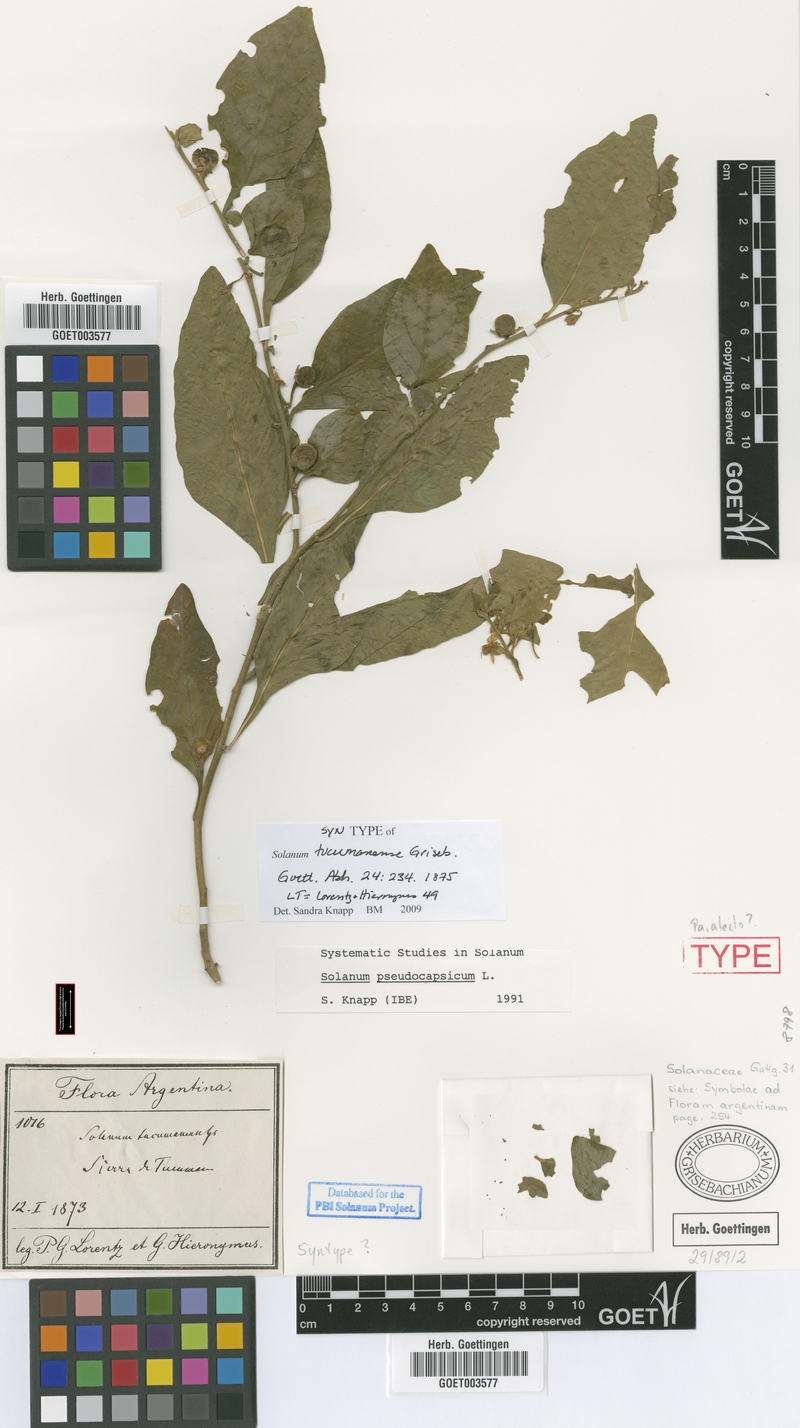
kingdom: Plantae
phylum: Tracheophyta
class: Magnoliopsida
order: Solanales
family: Solanaceae
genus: Solanum
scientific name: Solanum pseudocapsicum
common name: Jerusalem cherry
